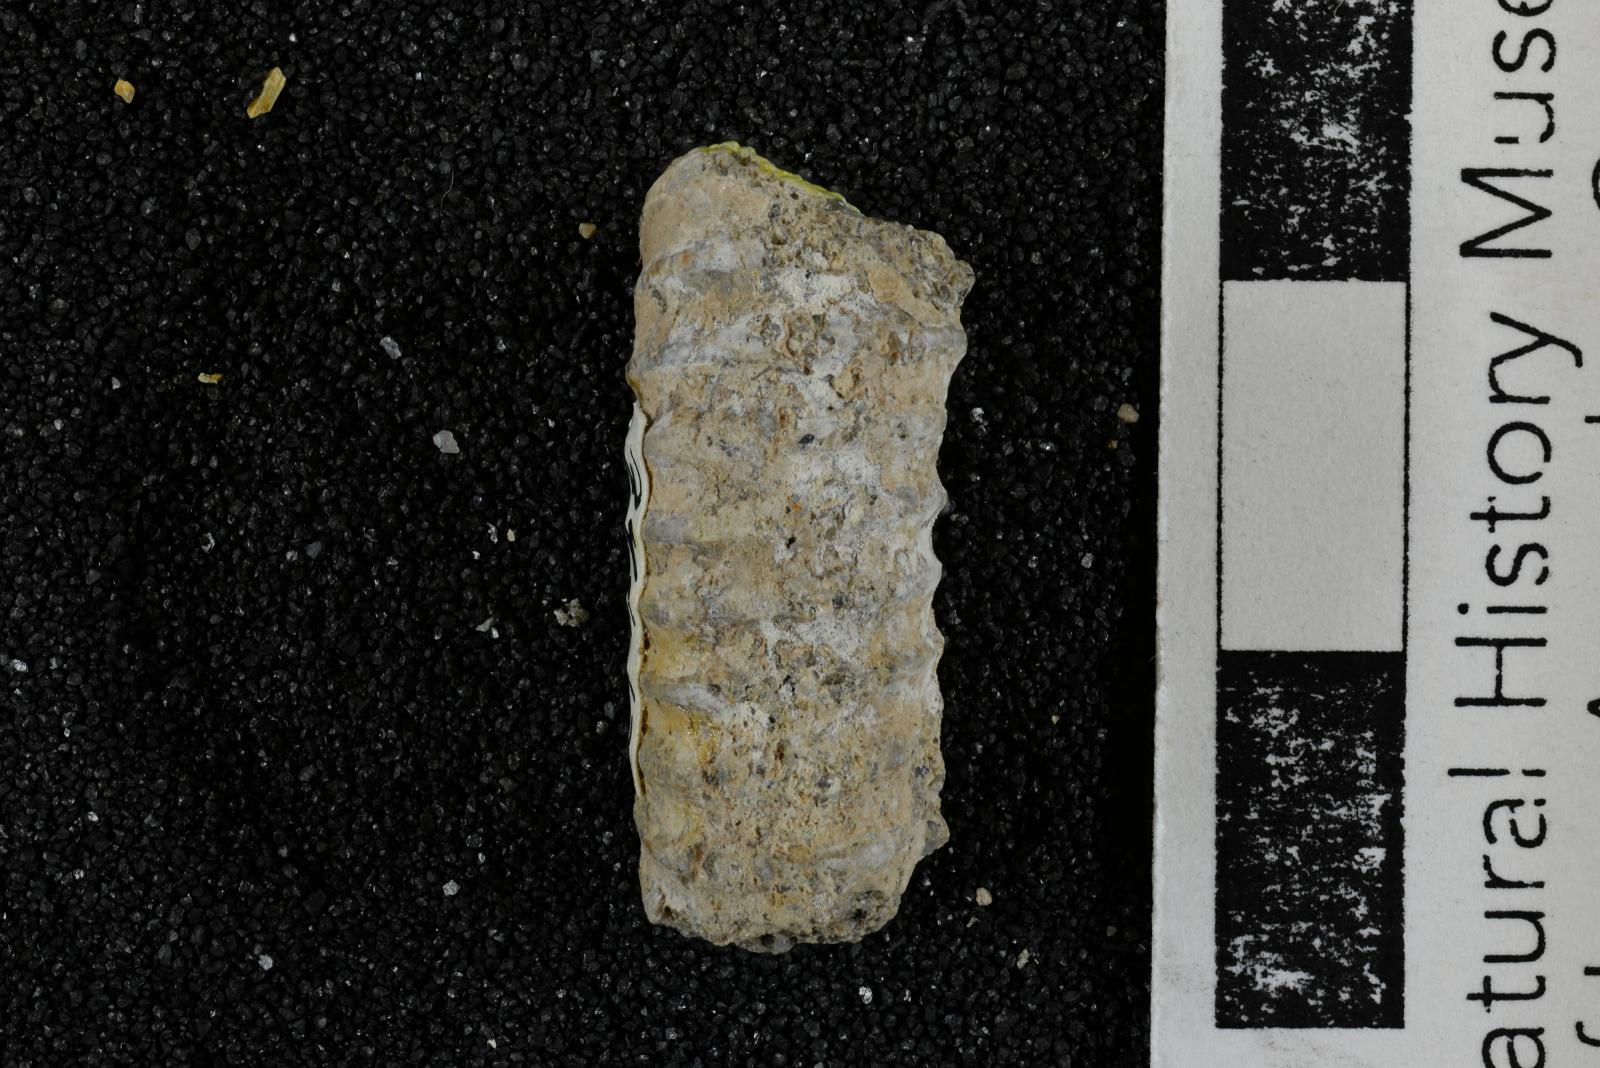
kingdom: Animalia
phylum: Mollusca
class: Cephalopoda
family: Nostoceratidae
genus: Nostoceras
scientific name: Nostoceras
